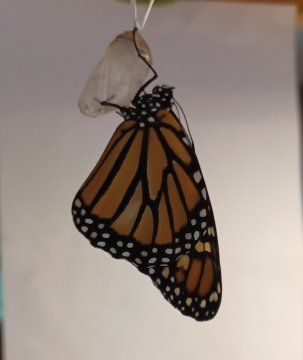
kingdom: Animalia
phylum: Arthropoda
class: Insecta
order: Lepidoptera
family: Nymphalidae
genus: Danaus
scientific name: Danaus plexippus
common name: Monarch
